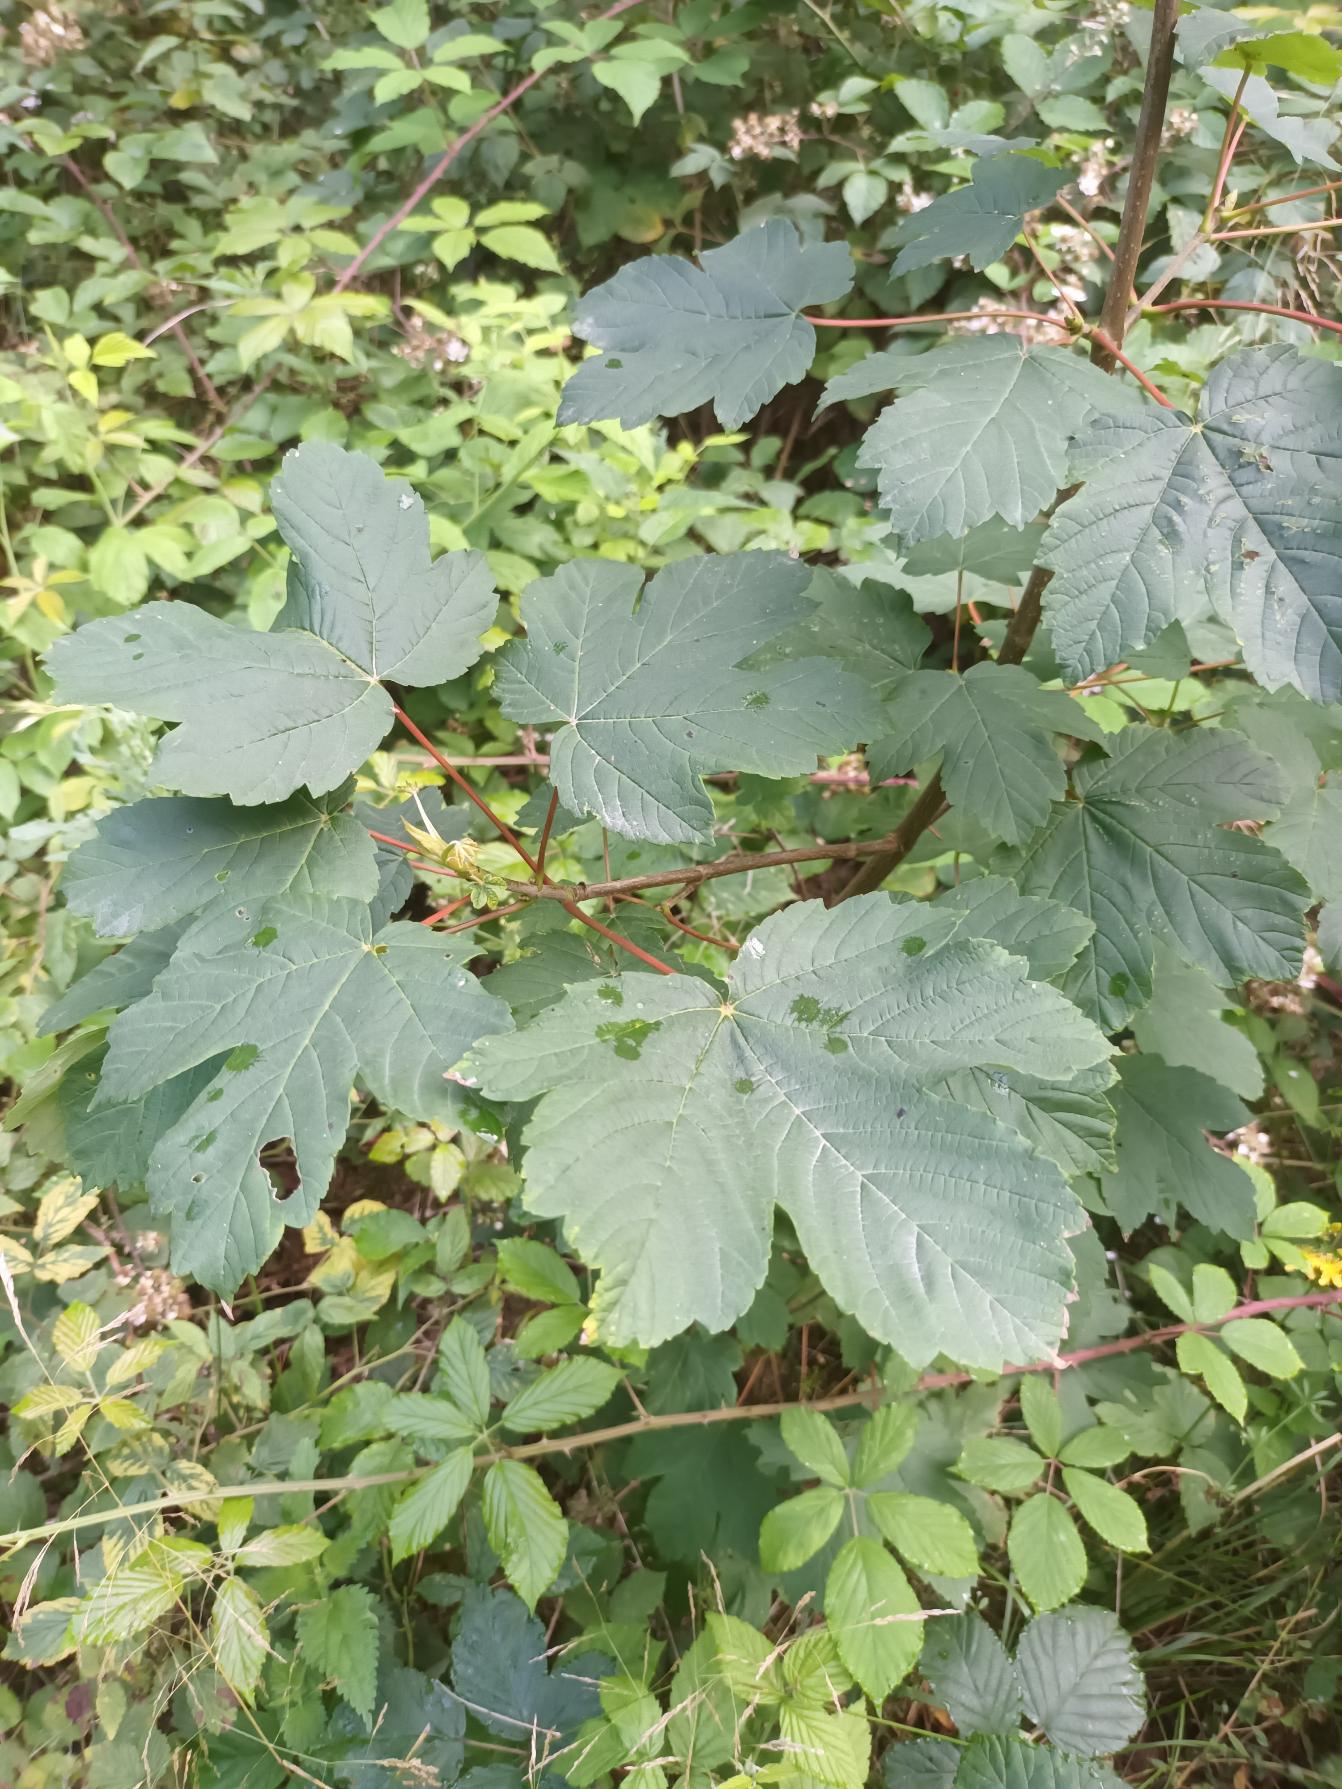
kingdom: Plantae
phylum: Tracheophyta
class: Magnoliopsida
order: Sapindales
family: Sapindaceae
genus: Acer
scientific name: Acer pseudoplatanus
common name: Ahorn
